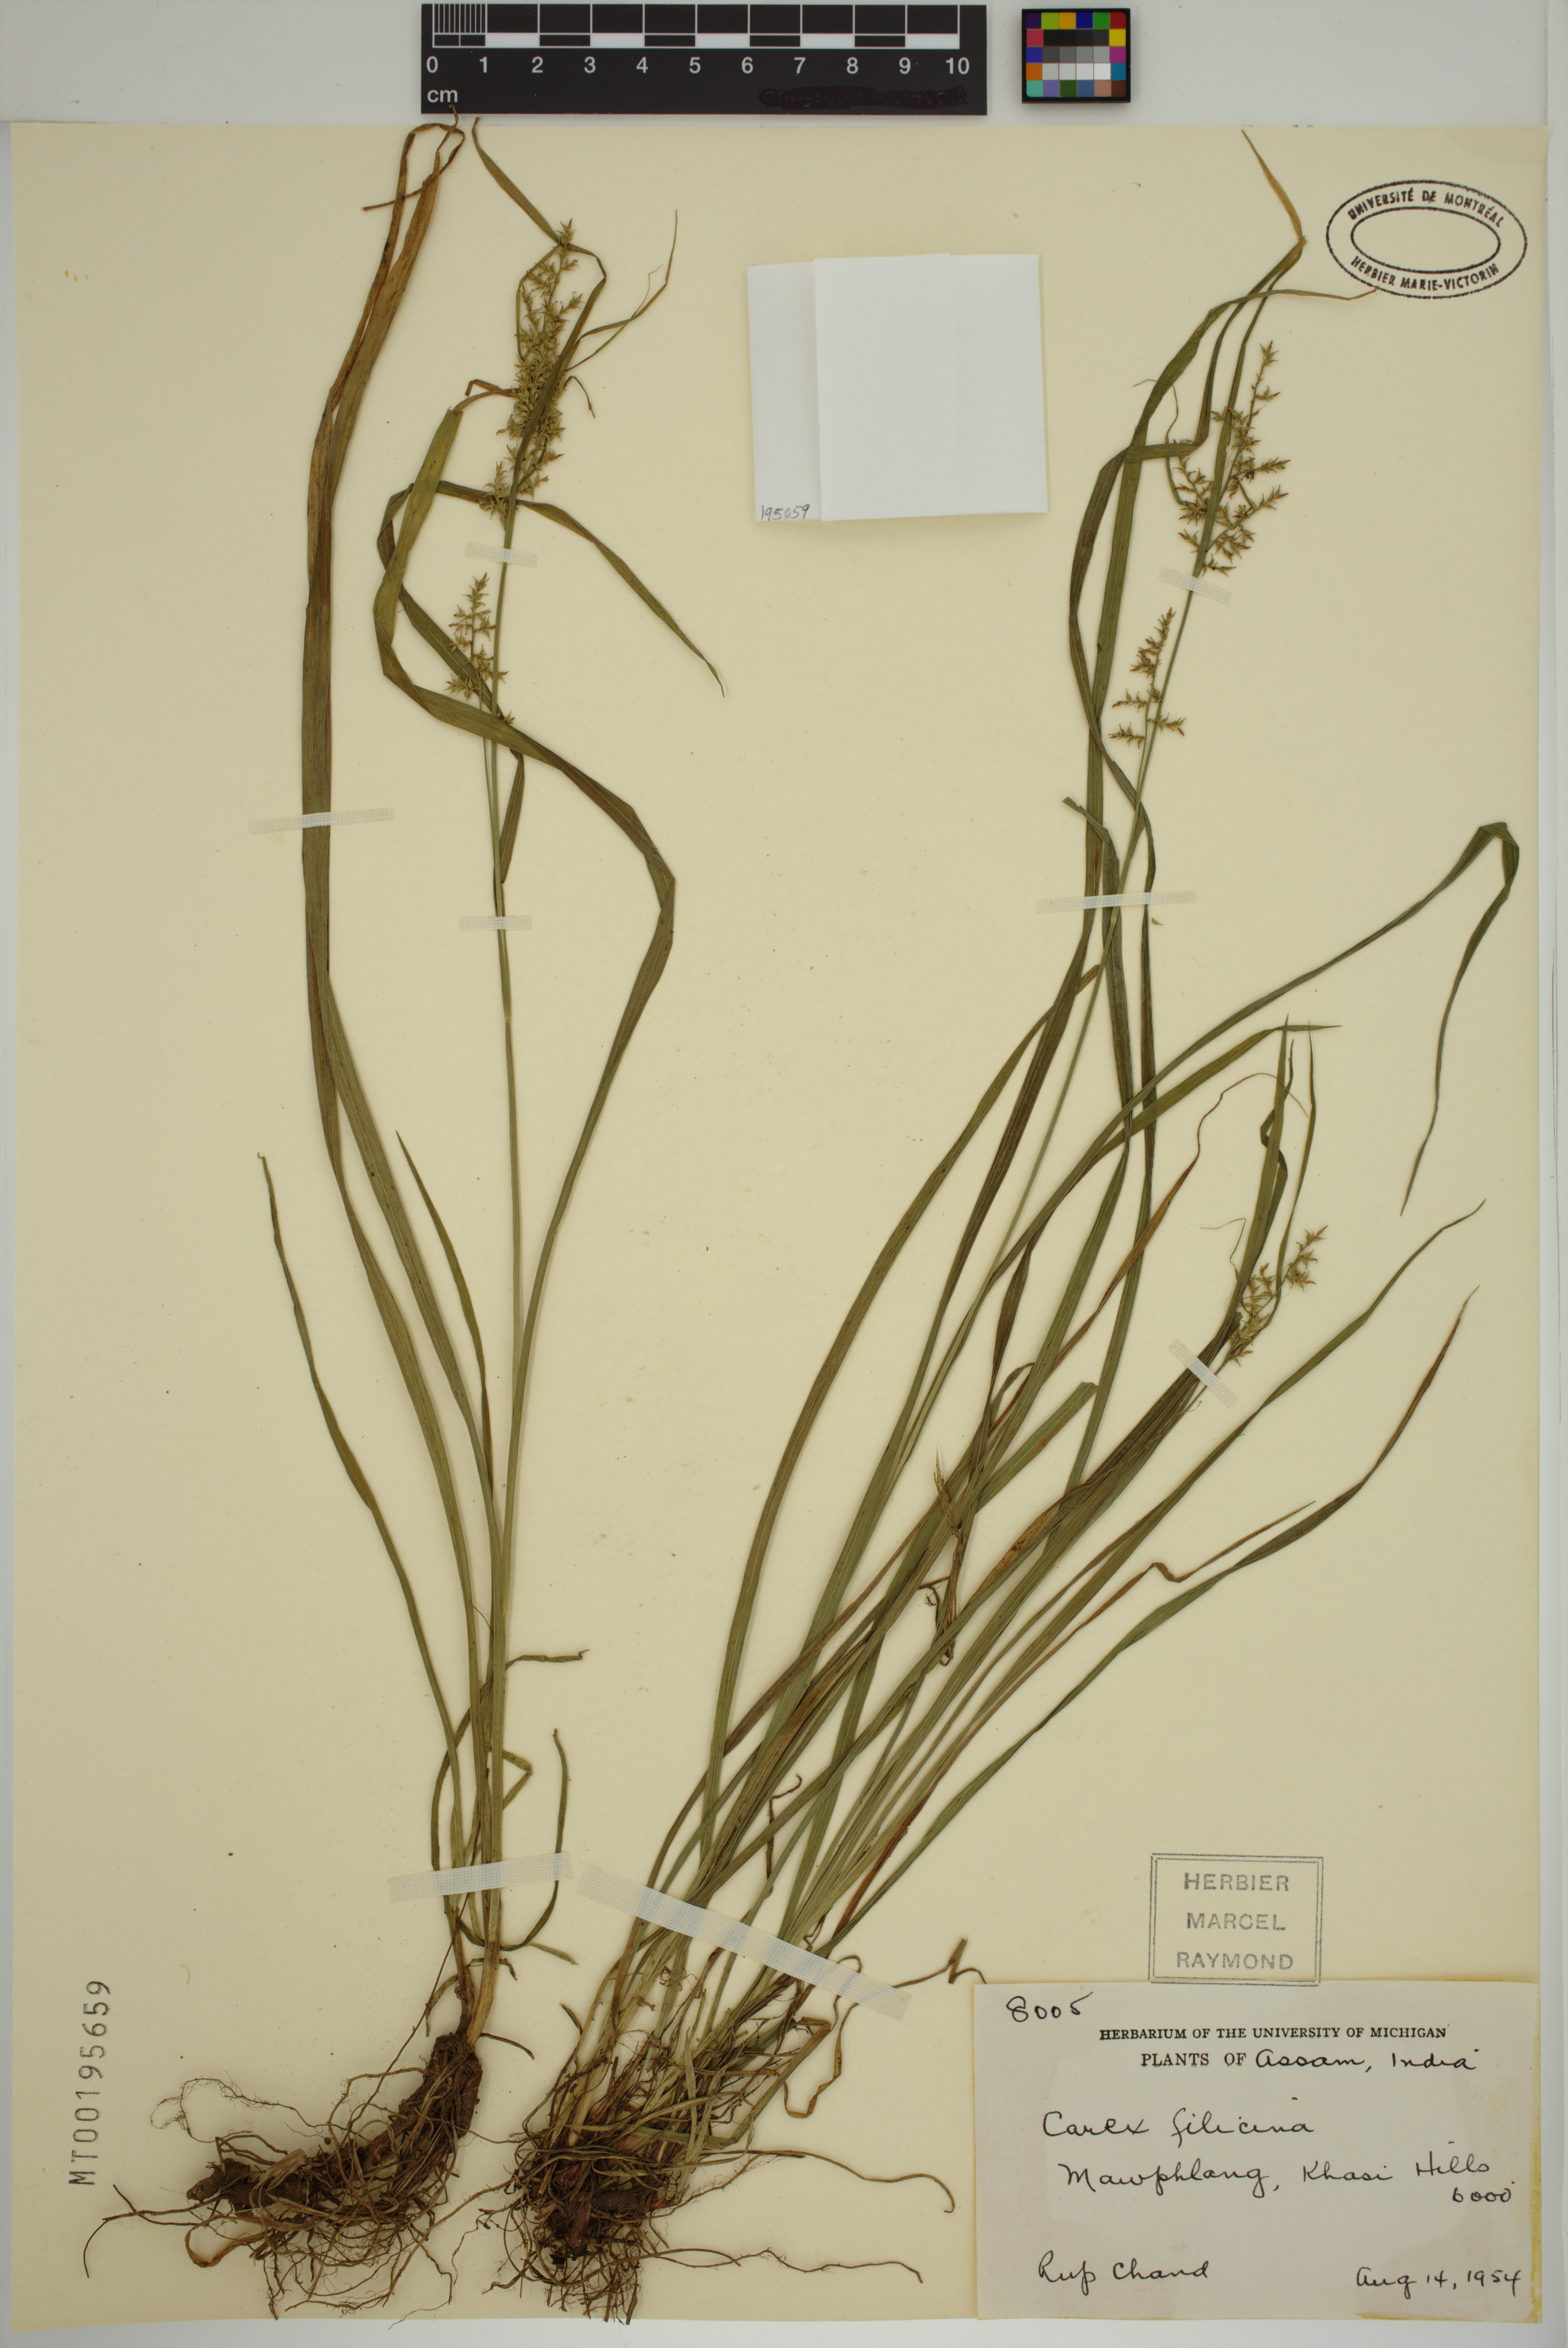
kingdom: Plantae
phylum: Tracheophyta
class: Liliopsida
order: Poales
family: Cyperaceae
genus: Carex
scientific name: Carex filicina
